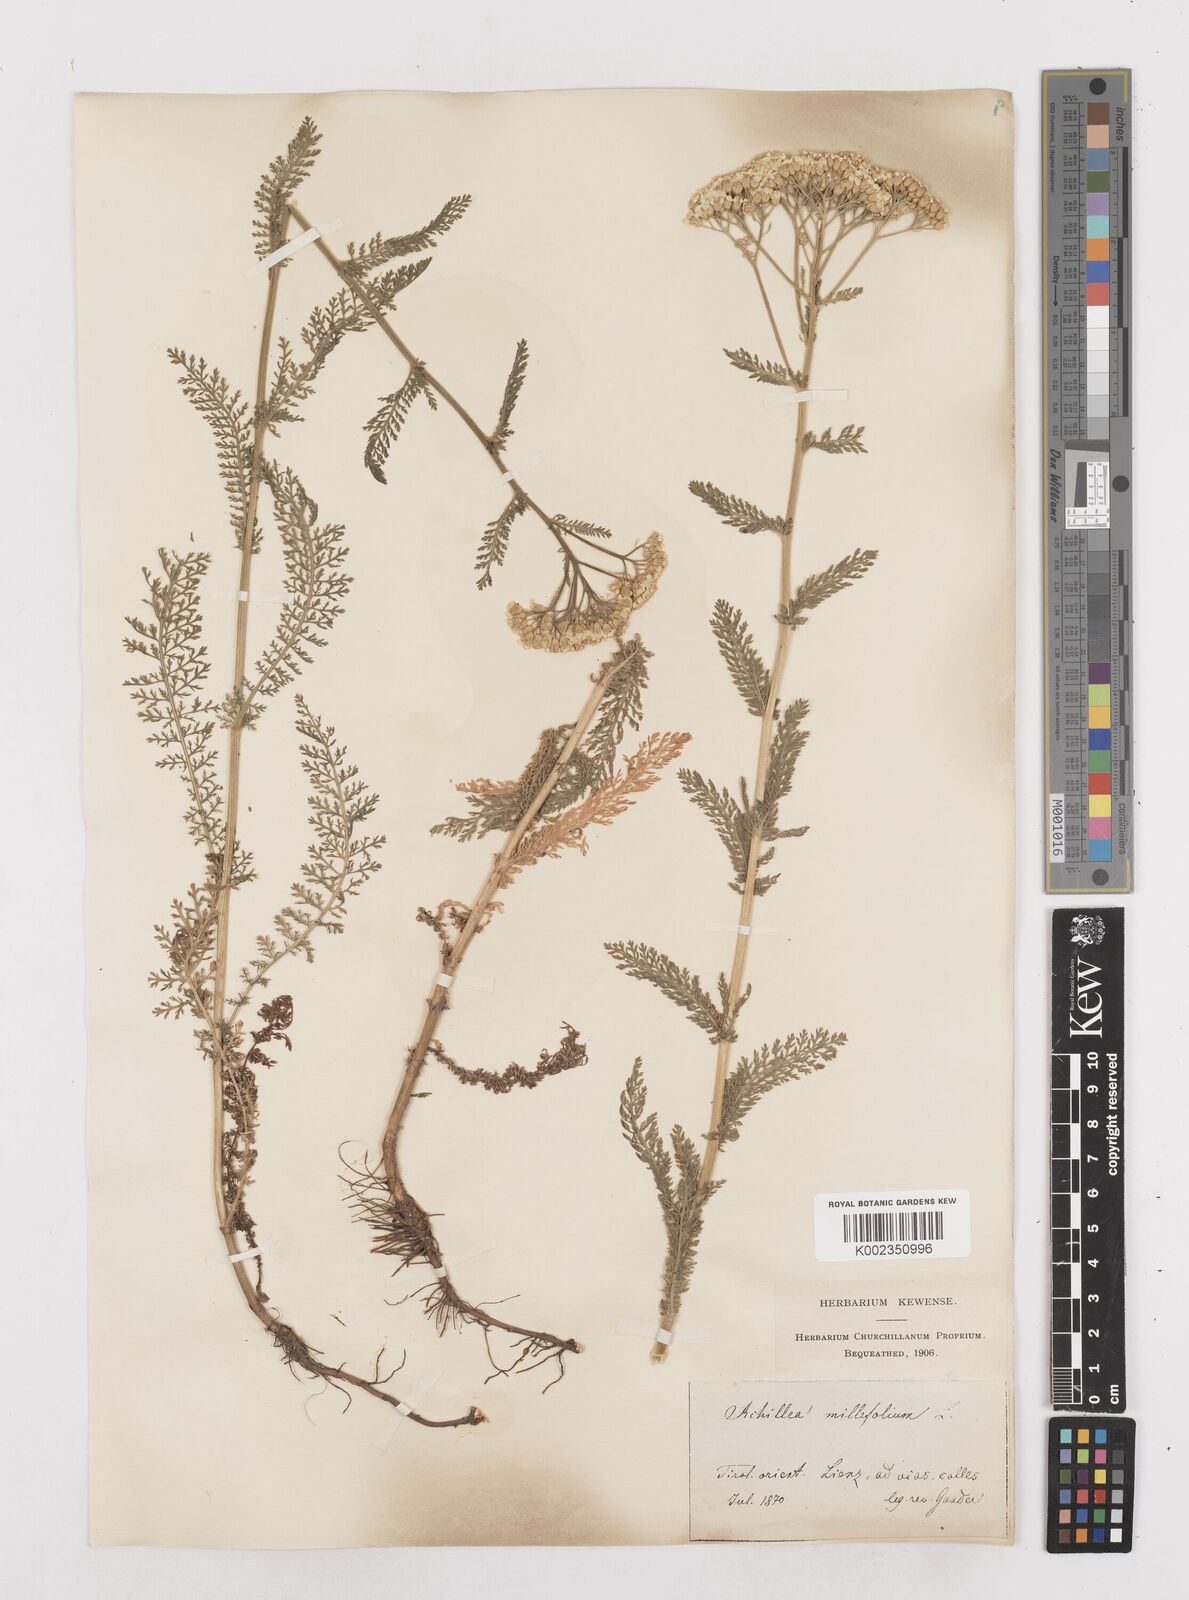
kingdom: Plantae
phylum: Tracheophyta
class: Magnoliopsida
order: Asterales
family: Asteraceae
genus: Achillea
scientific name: Achillea millefolium
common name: Yarrow
